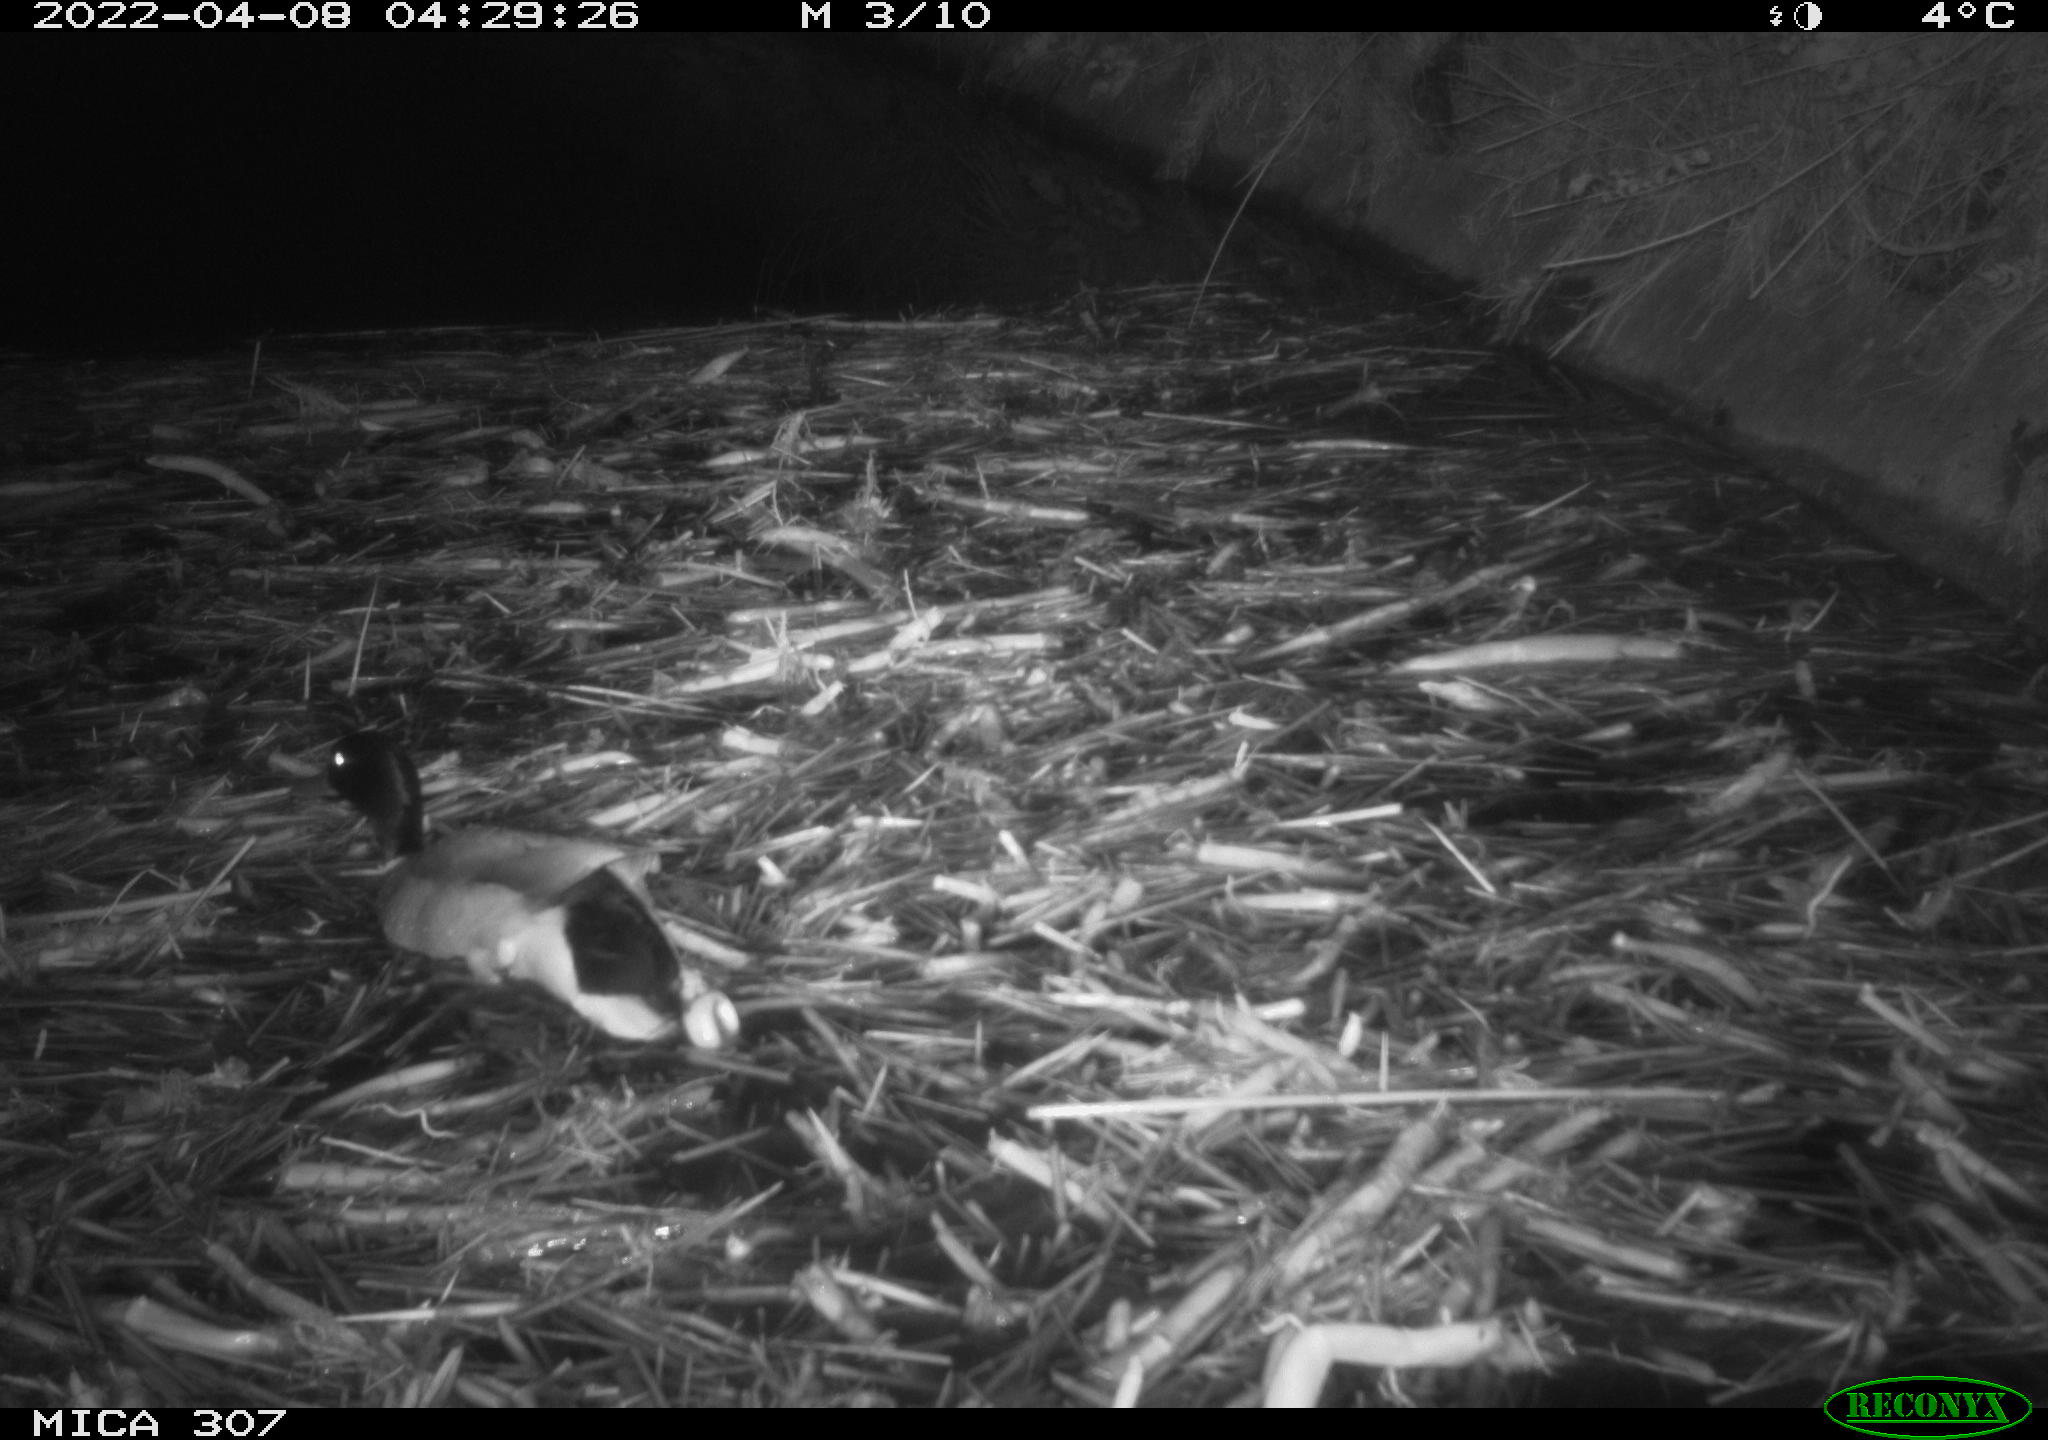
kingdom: Animalia
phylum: Chordata
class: Aves
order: Anseriformes
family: Anatidae
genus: Anas
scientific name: Anas platyrhynchos
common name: Mallard
